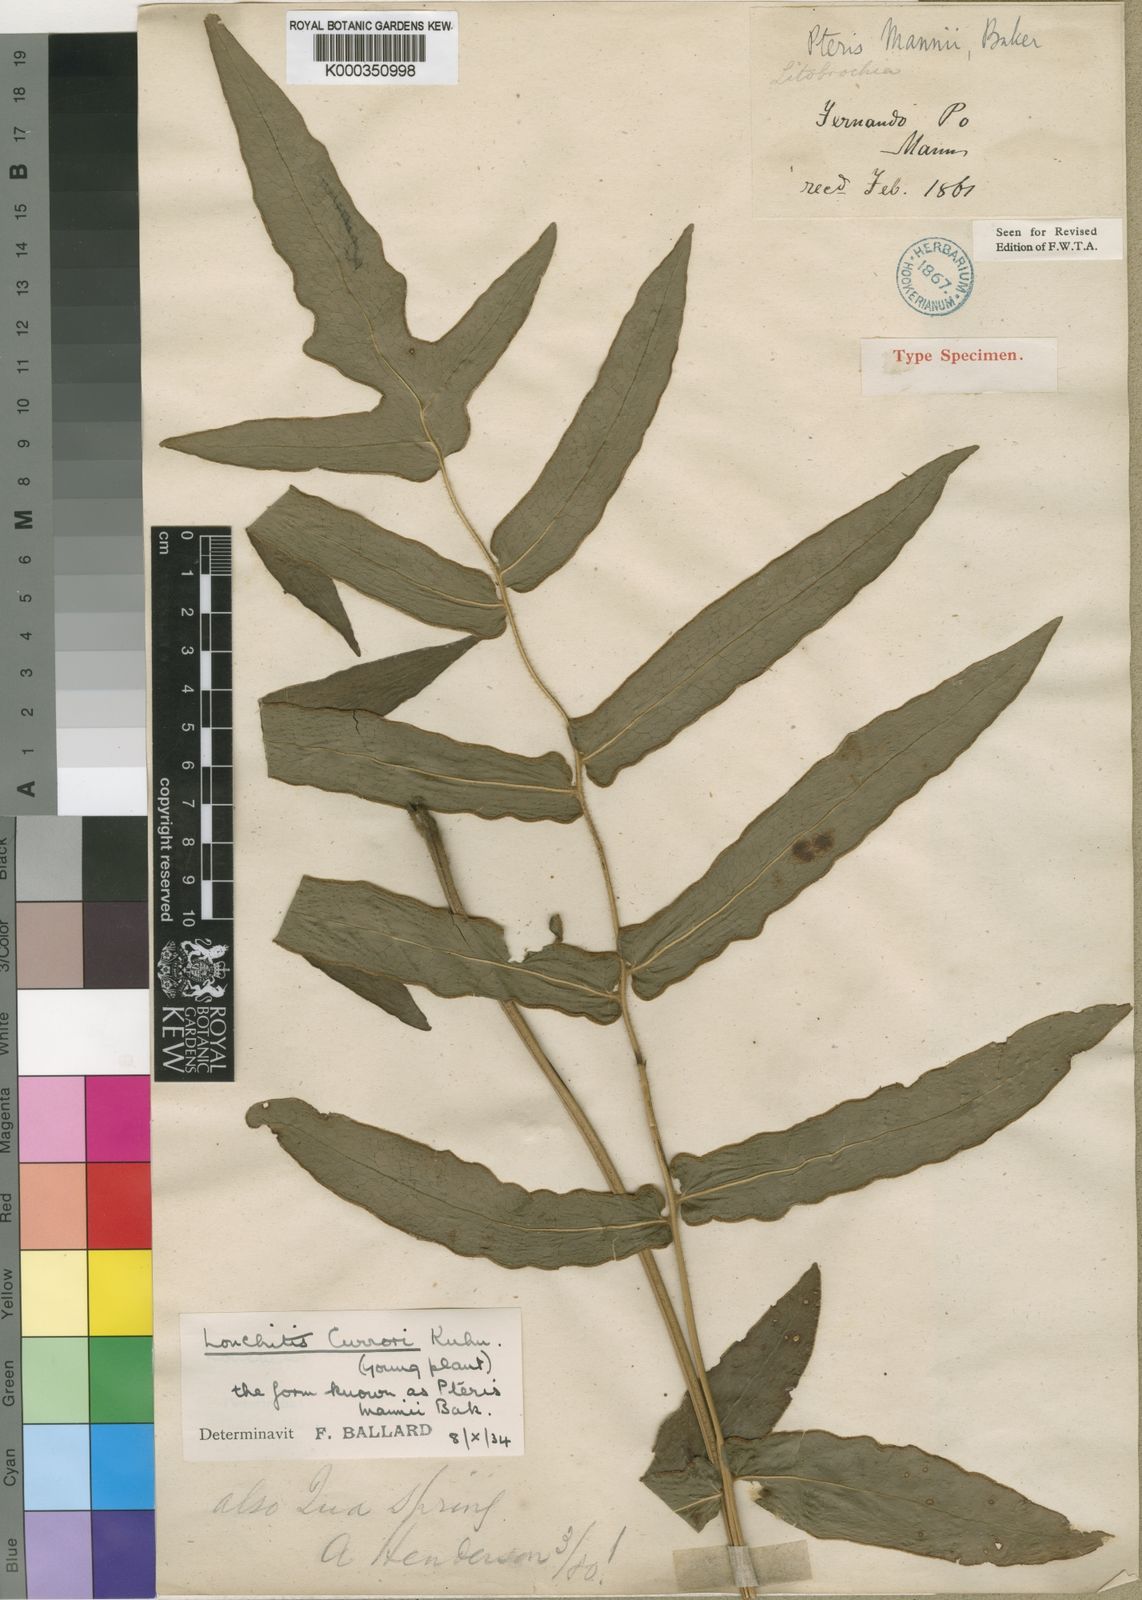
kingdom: Plantae
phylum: Tracheophyta
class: Polypodiopsida
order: Polypodiales
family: Dennstaedtiaceae
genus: Blotiella
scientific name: Blotiella currorii
